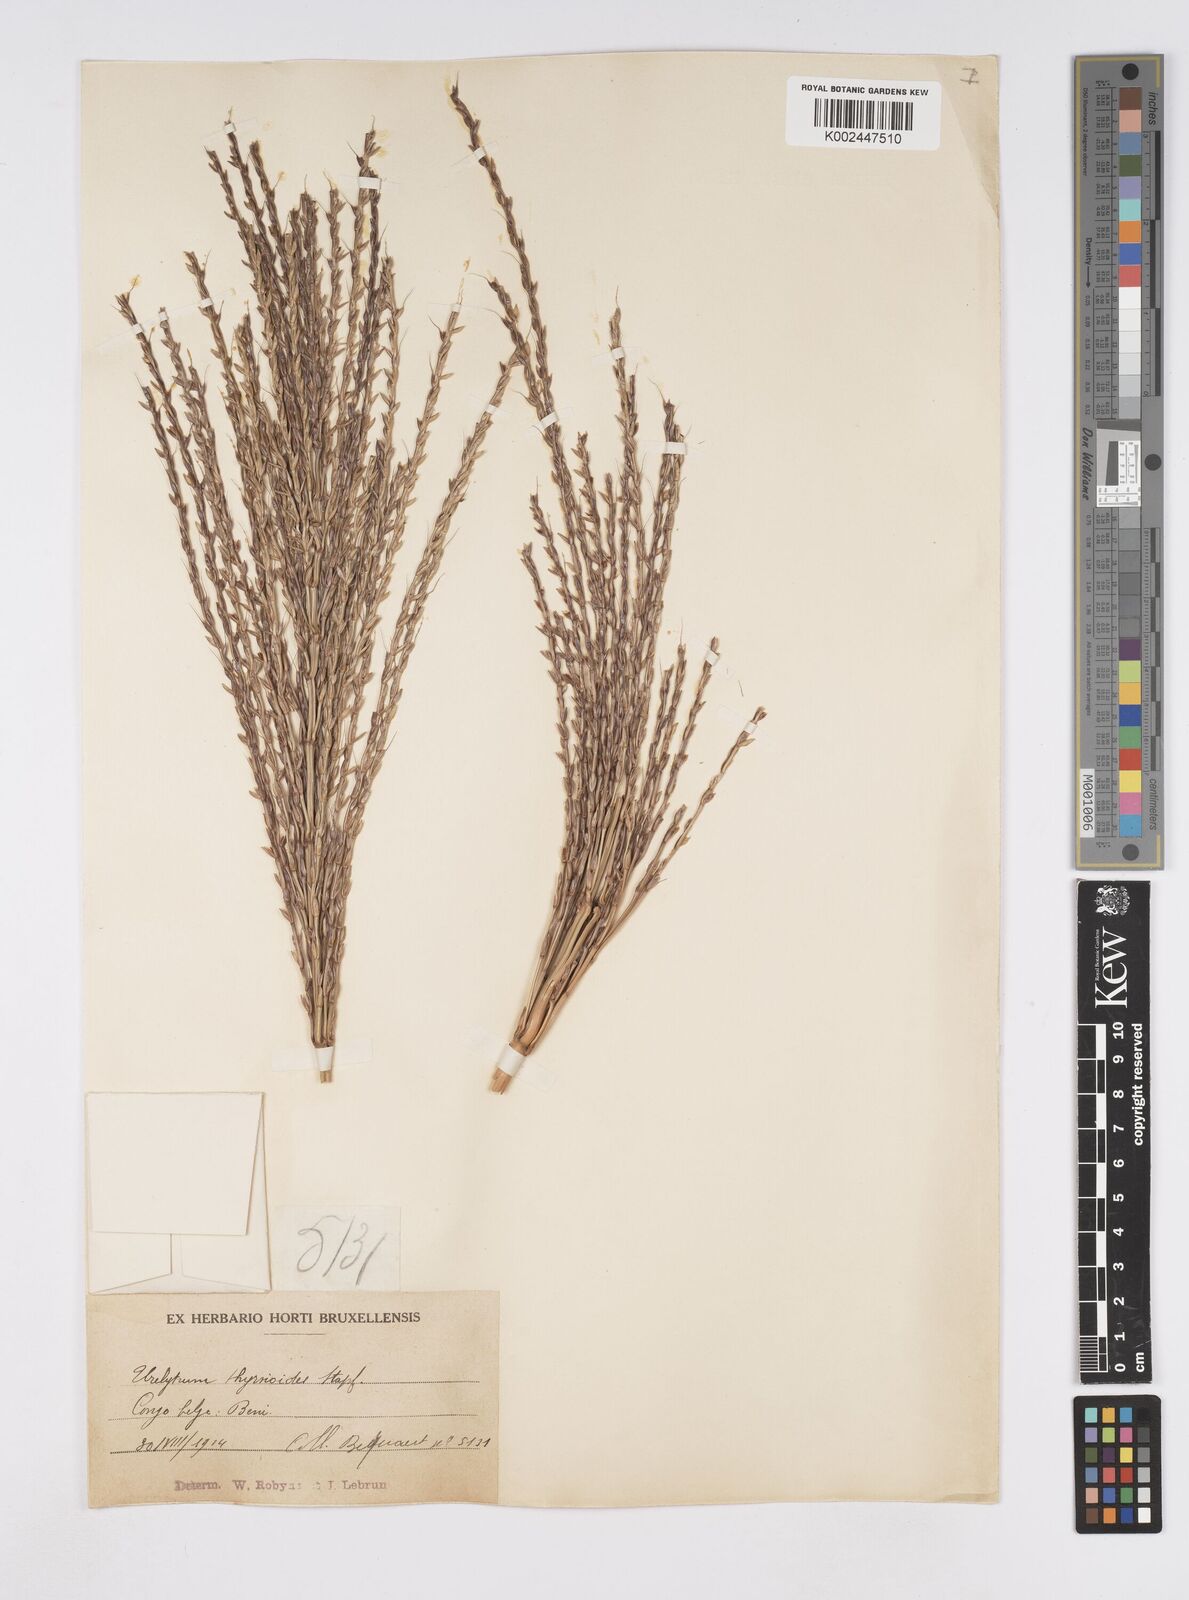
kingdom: Plantae
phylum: Tracheophyta
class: Liliopsida
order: Poales
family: Poaceae
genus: Urelytrum
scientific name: Urelytrum giganteum
